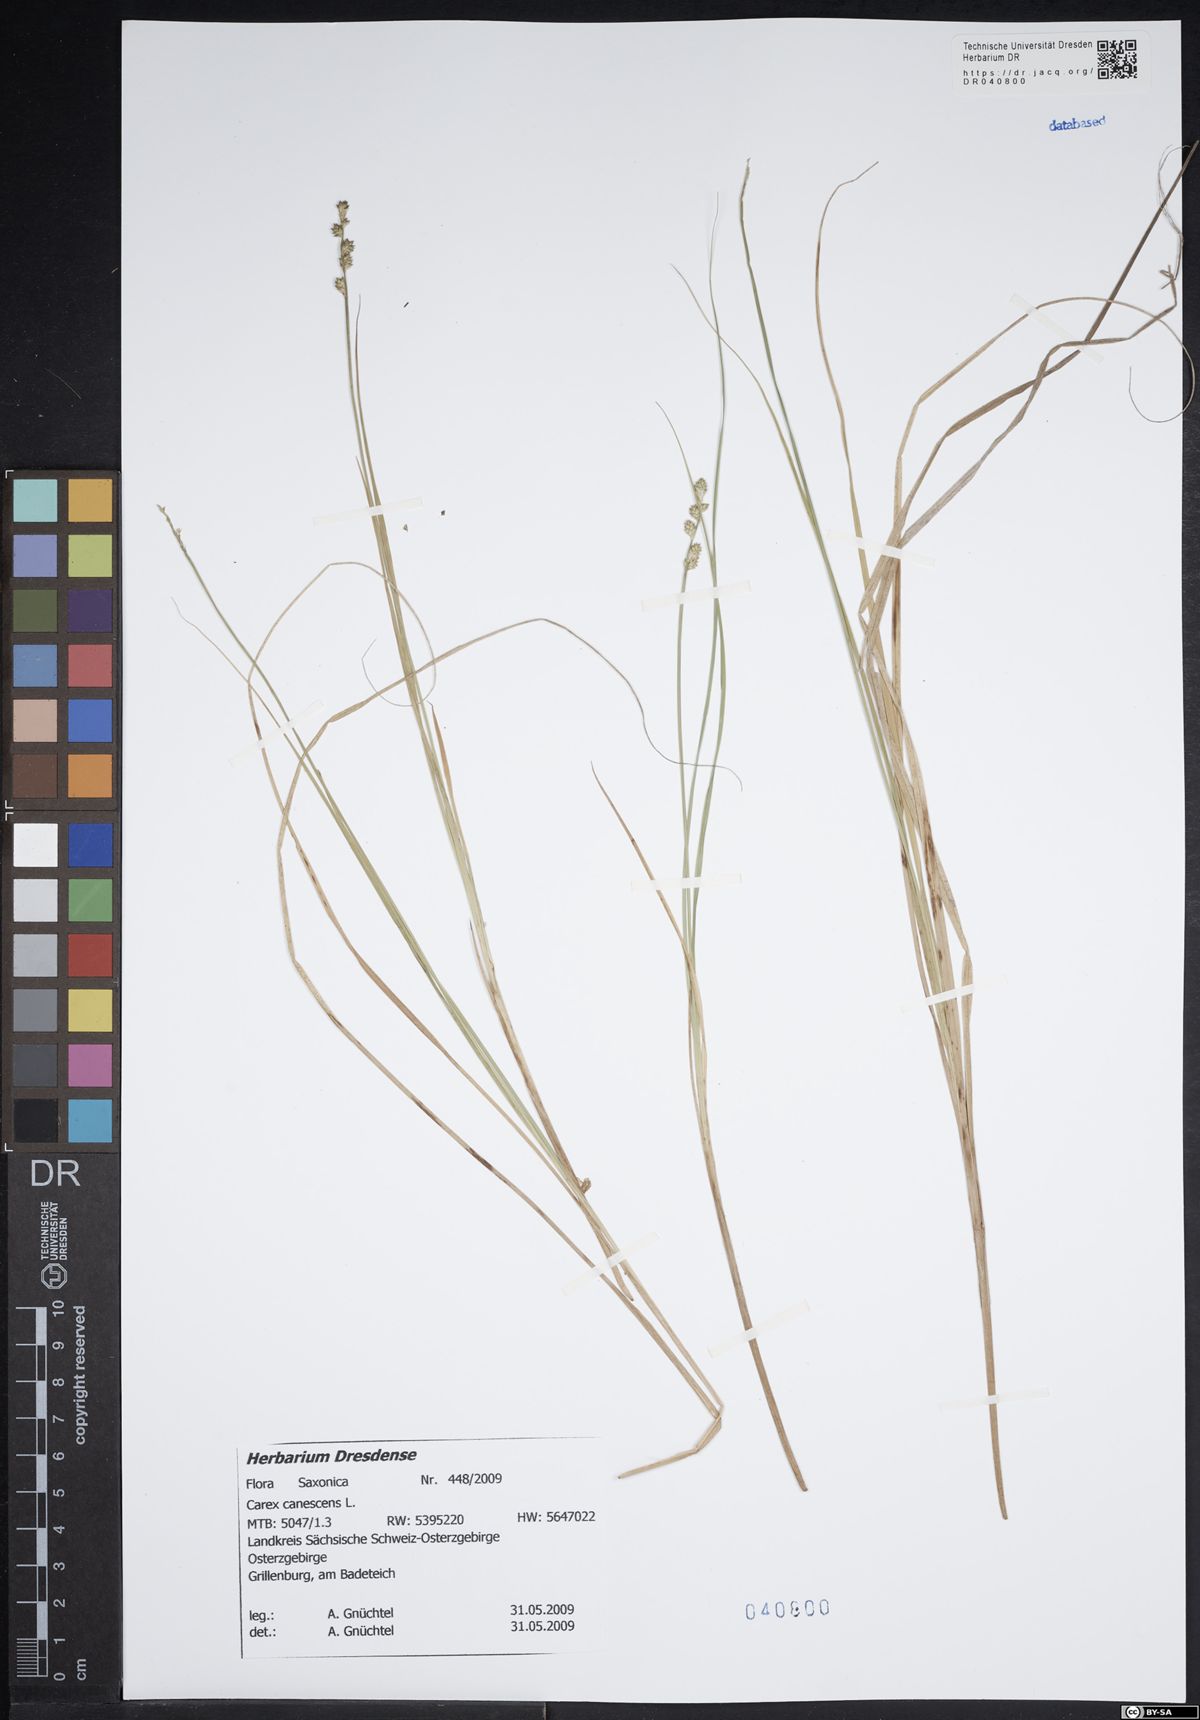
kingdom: Plantae
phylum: Tracheophyta
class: Liliopsida
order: Poales
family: Cyperaceae
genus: Carex
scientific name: Carex canescens
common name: White sedge
